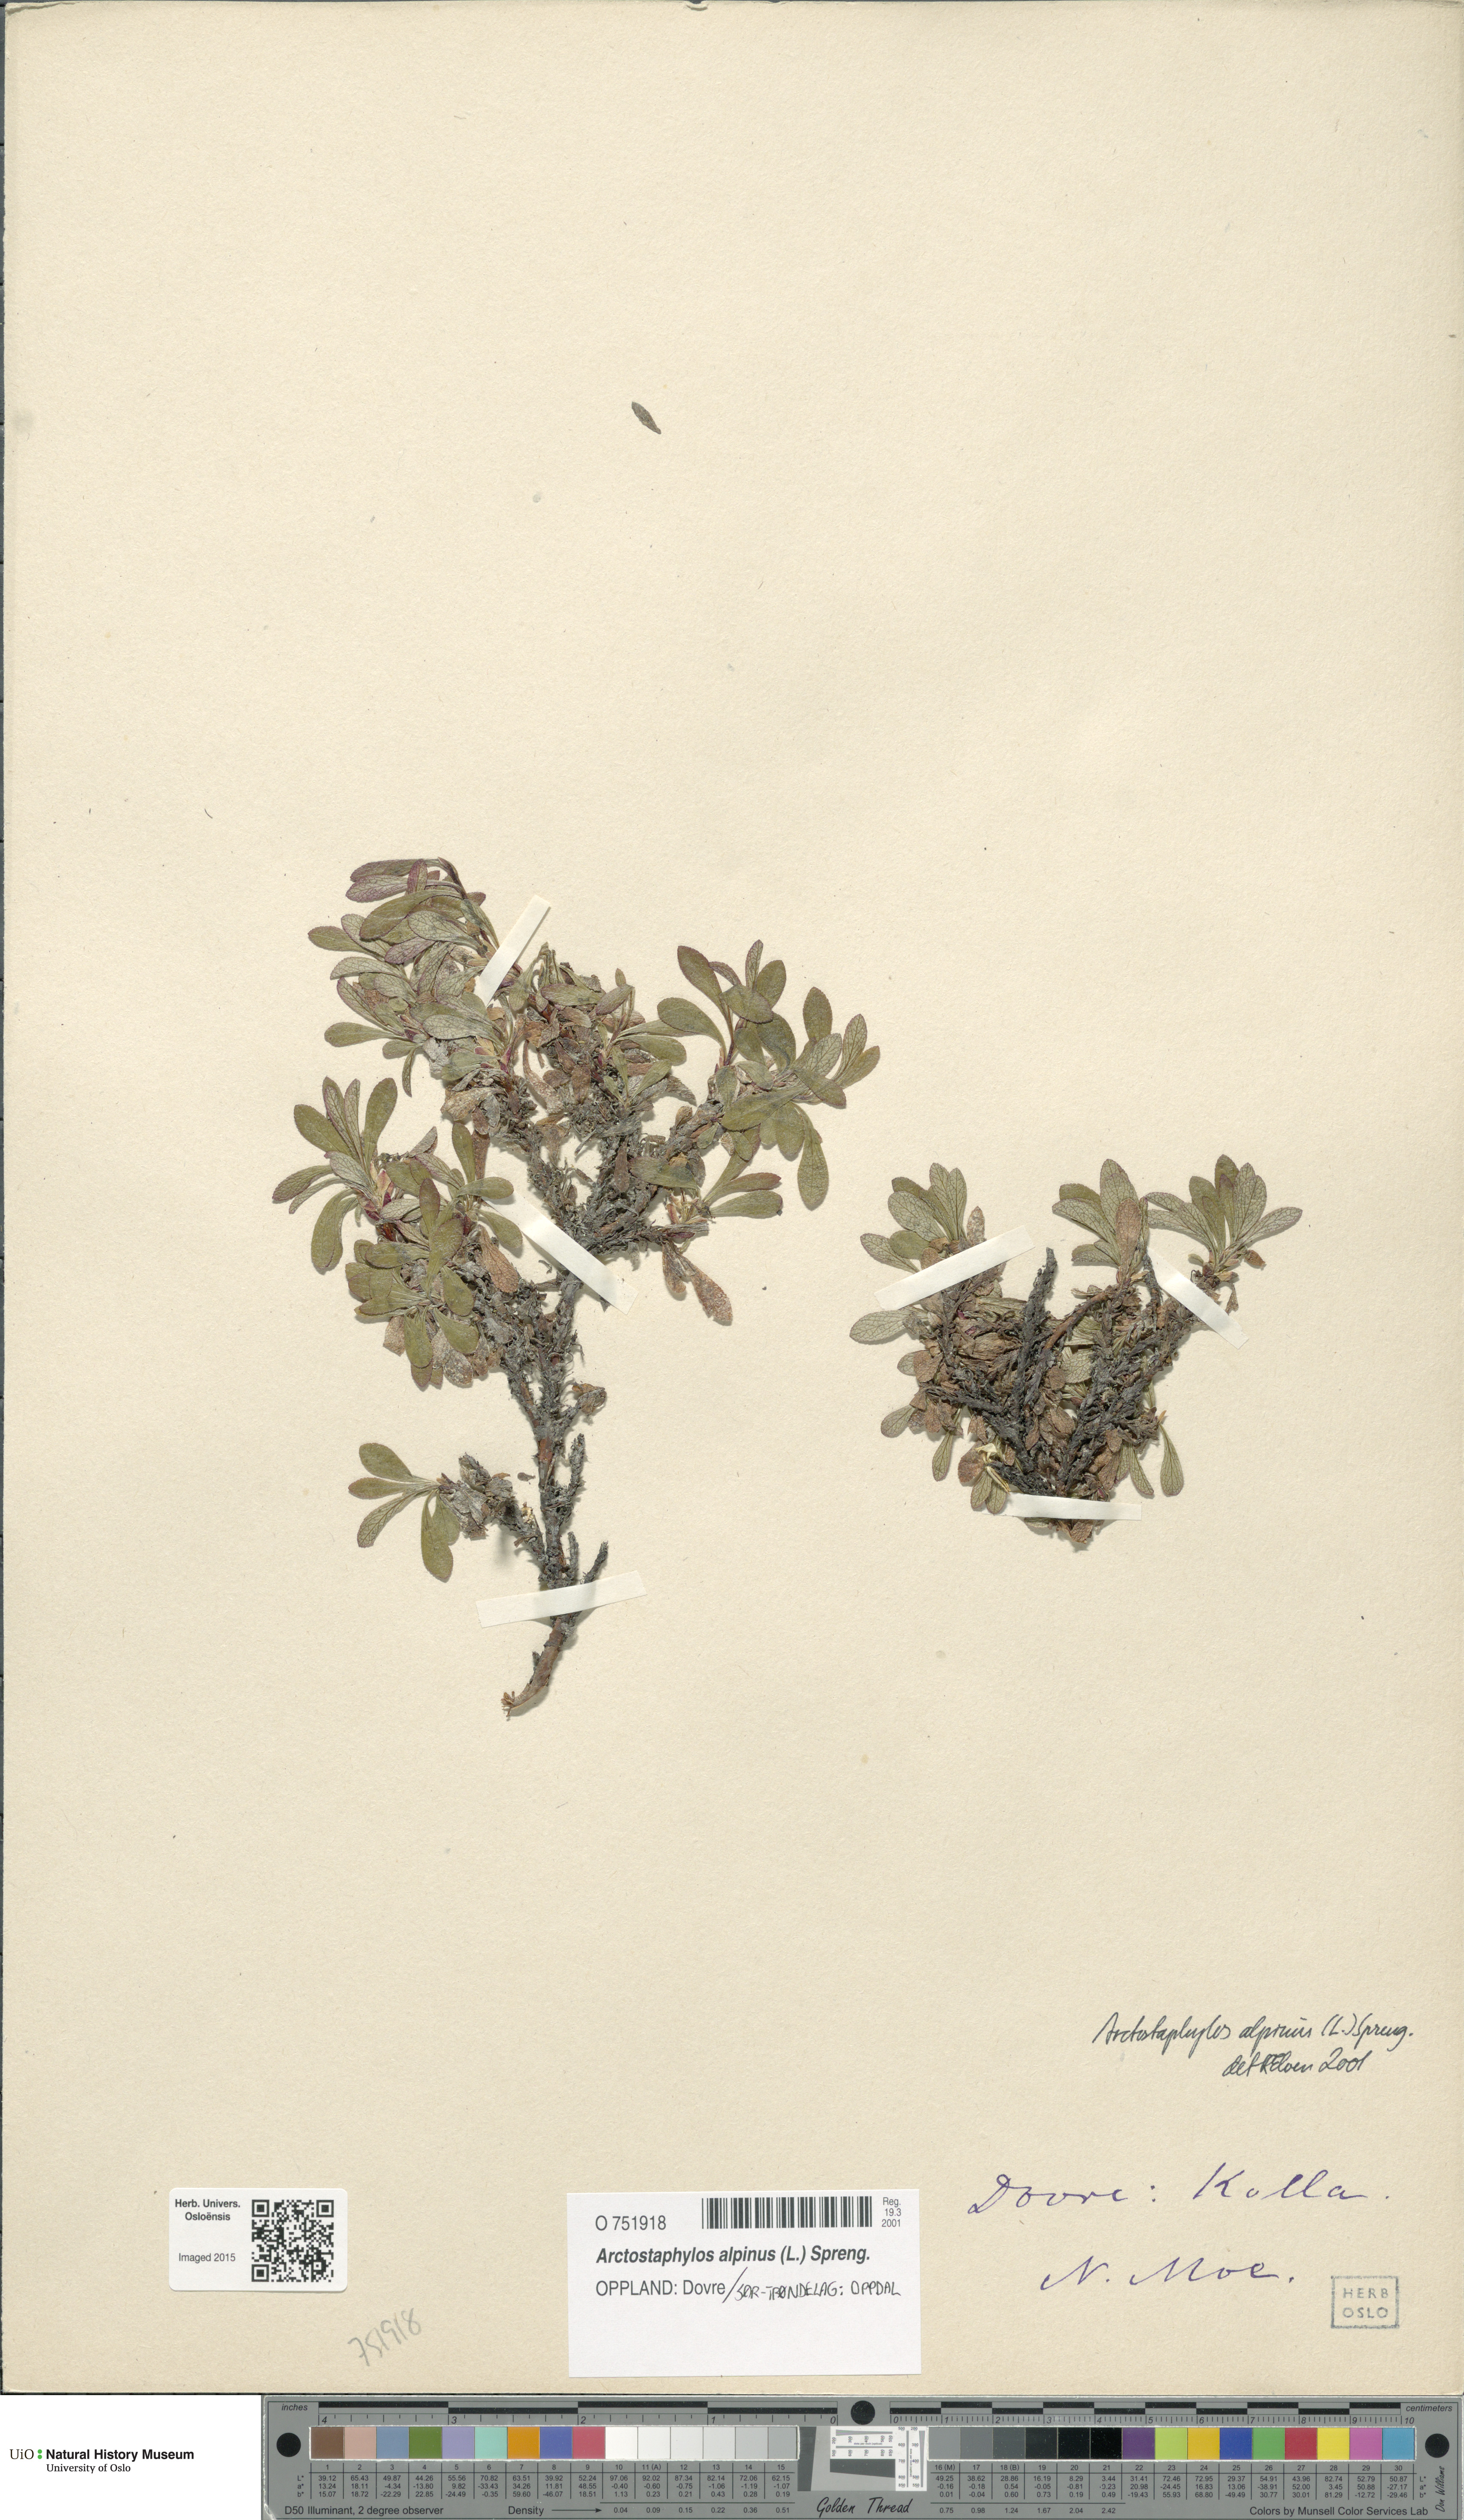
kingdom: Plantae
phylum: Tracheophyta
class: Magnoliopsida
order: Ericales
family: Ericaceae
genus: Arctostaphylos
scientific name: Arctostaphylos alpinus
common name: Alpine bearberry
